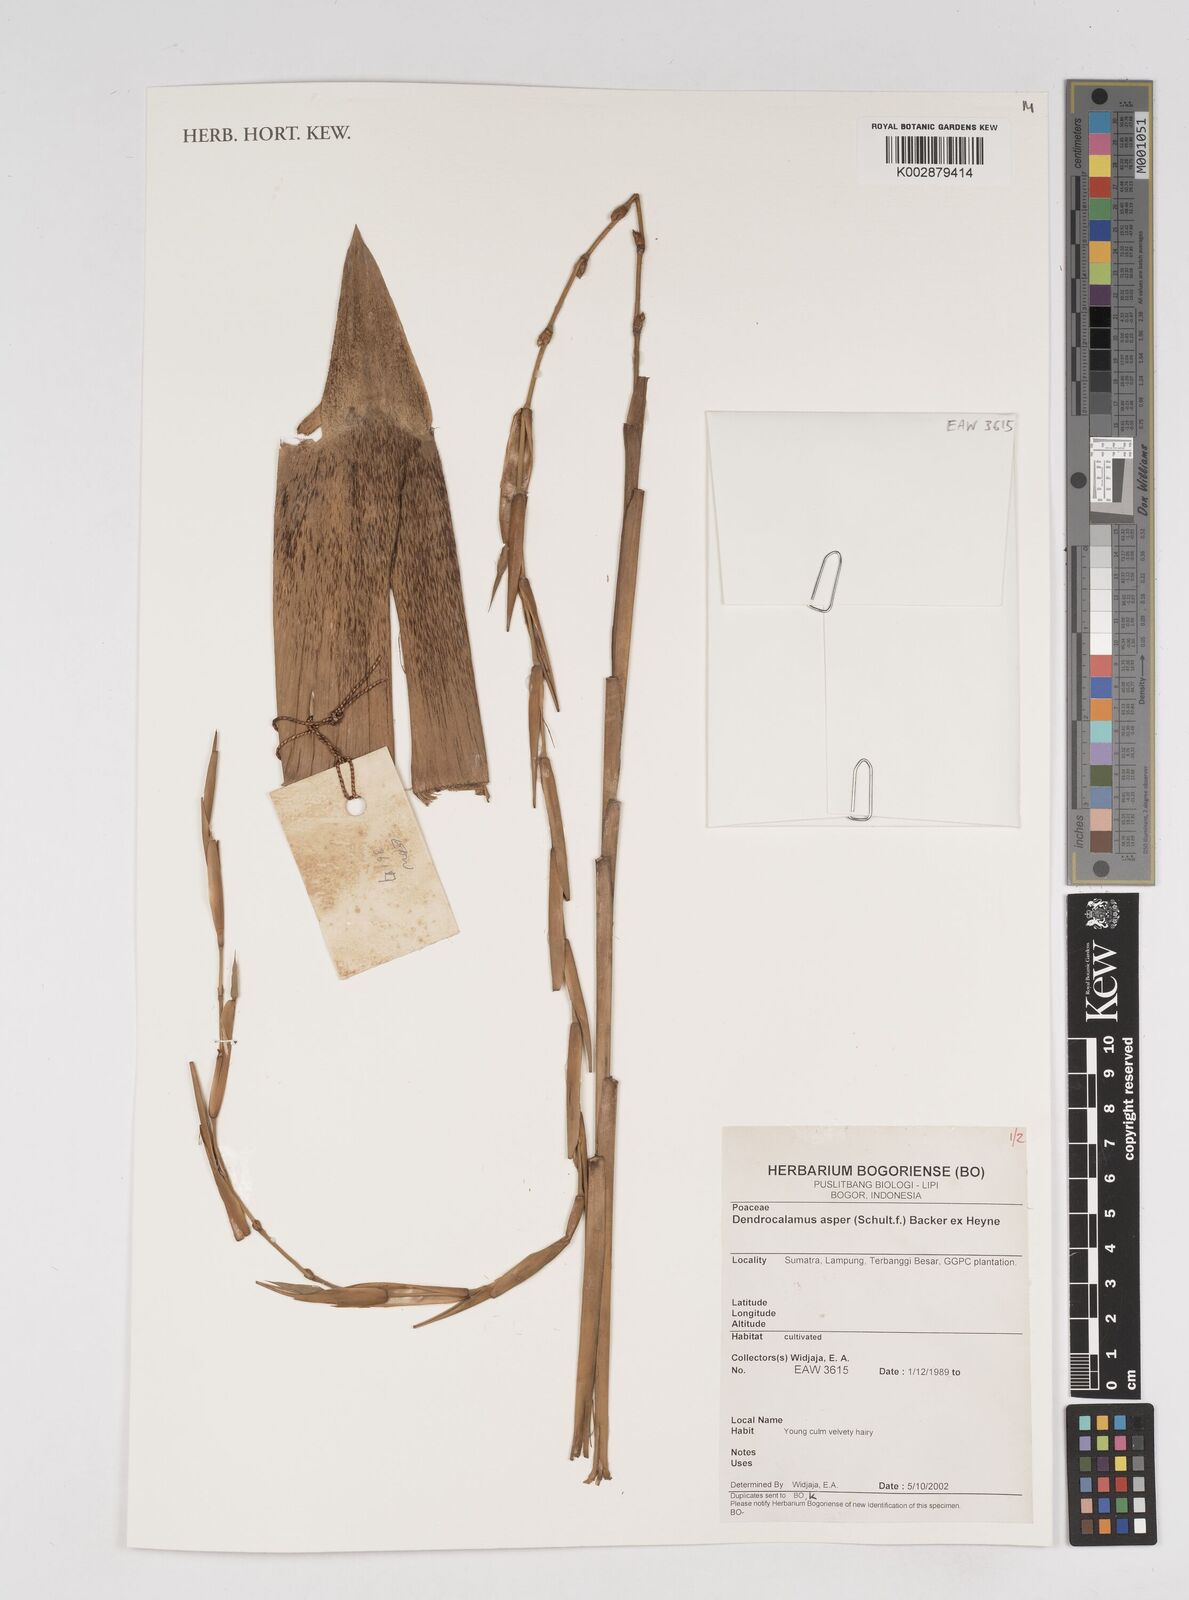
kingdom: Plantae
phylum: Tracheophyta
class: Liliopsida
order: Poales
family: Poaceae
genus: Dendrocalamus
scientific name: Dendrocalamus asper
